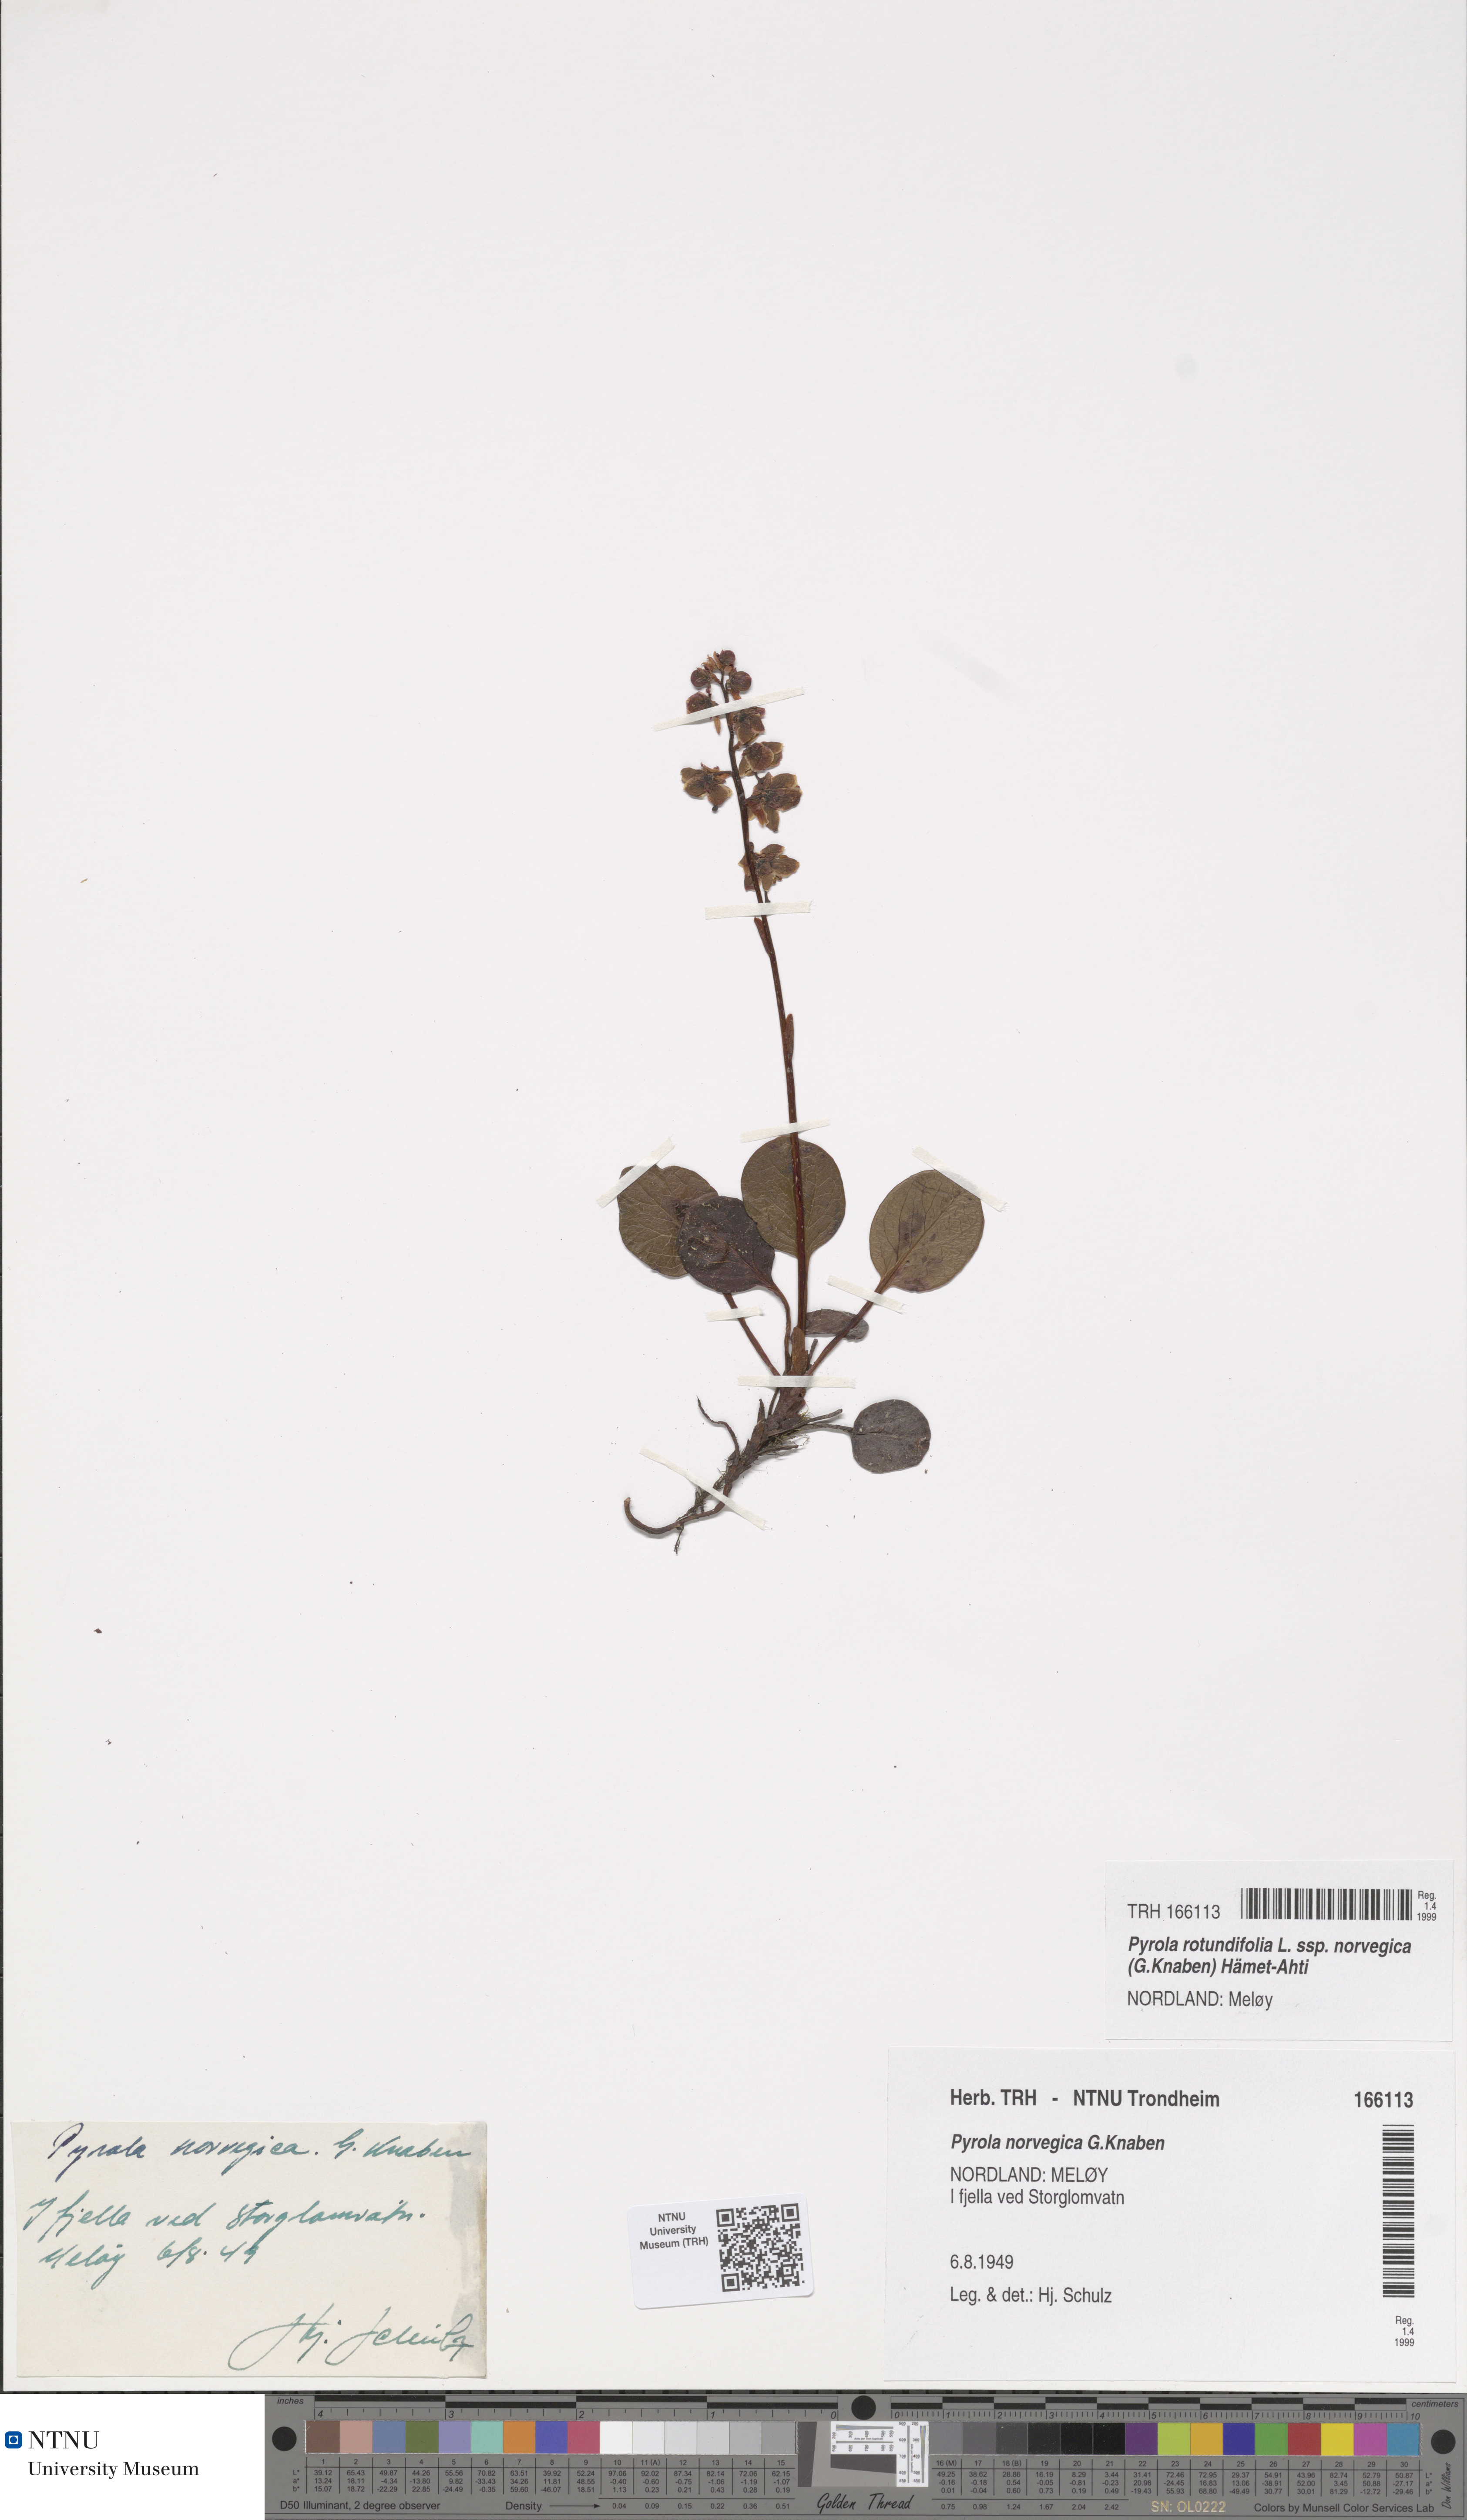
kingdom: Plantae
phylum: Tracheophyta
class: Magnoliopsida
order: Ericales
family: Ericaceae
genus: Pyrola
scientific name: Pyrola rotundifolia
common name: Round-leaved wintergreen
